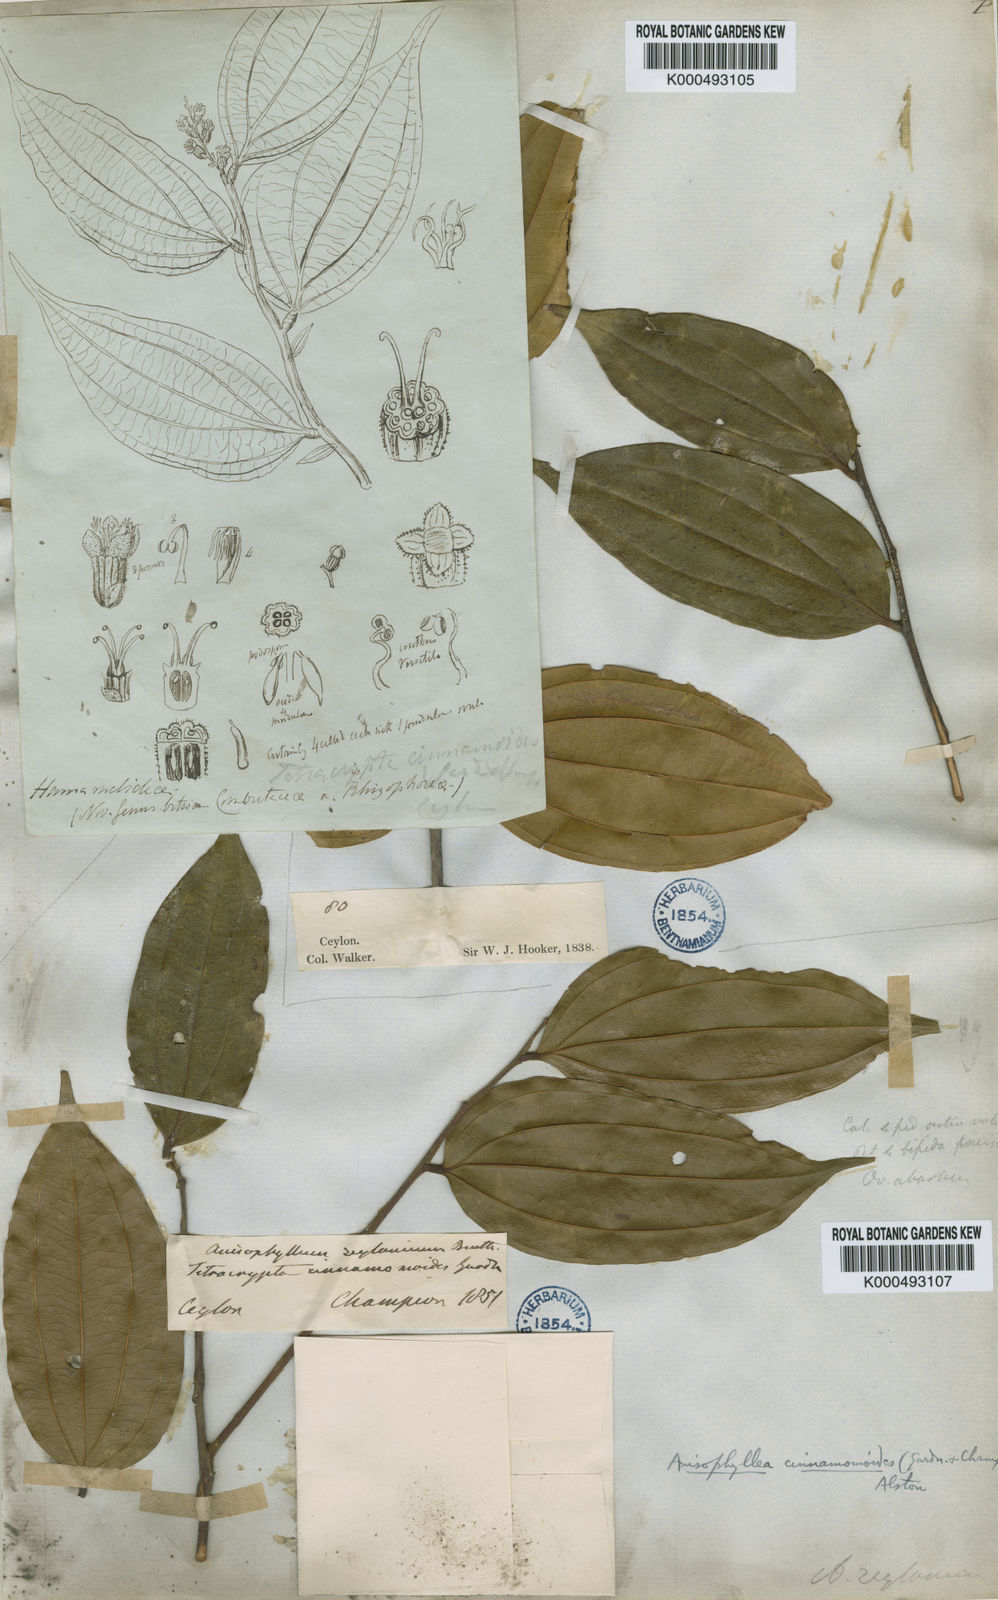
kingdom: Plantae
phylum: Tracheophyta
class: Magnoliopsida
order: Cucurbitales
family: Anisophylleaceae
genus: Anisophyllea
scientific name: Anisophyllea cinnamomoides
